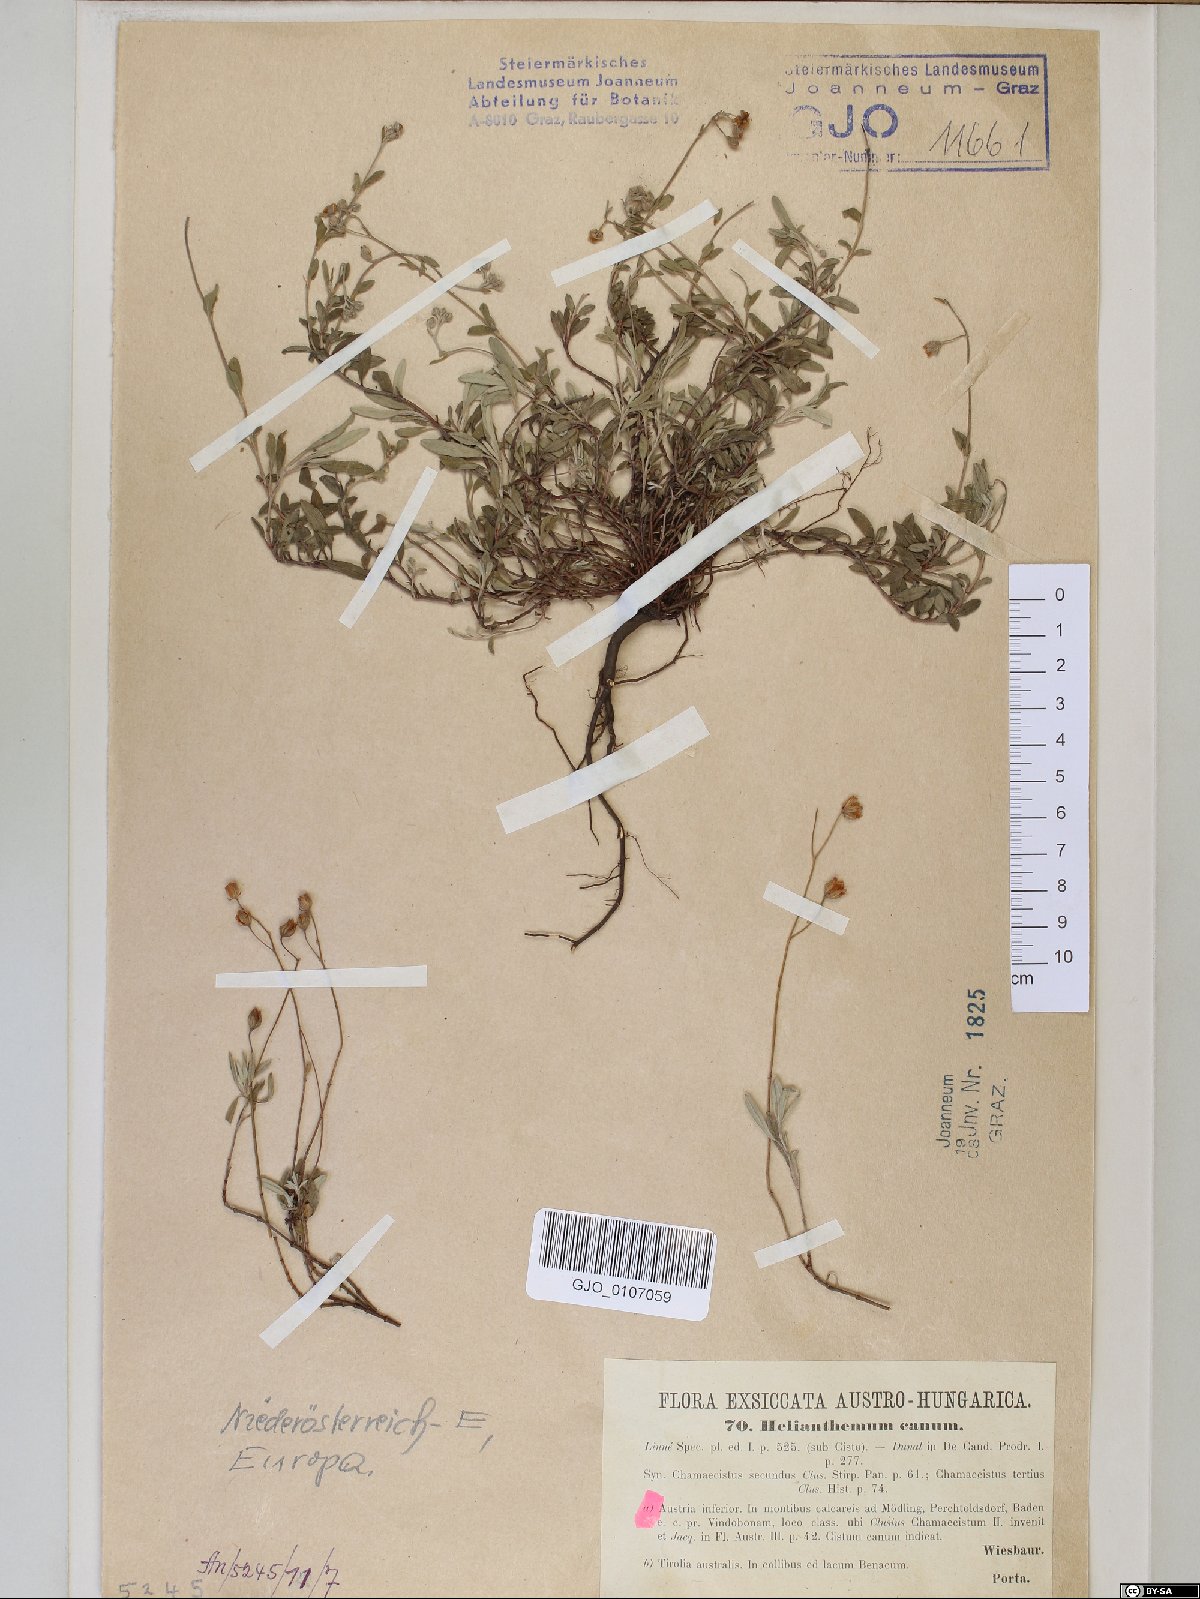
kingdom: Plantae
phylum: Tracheophyta
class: Magnoliopsida
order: Malvales
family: Cistaceae
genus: Helianthemum
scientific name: Helianthemum canum
